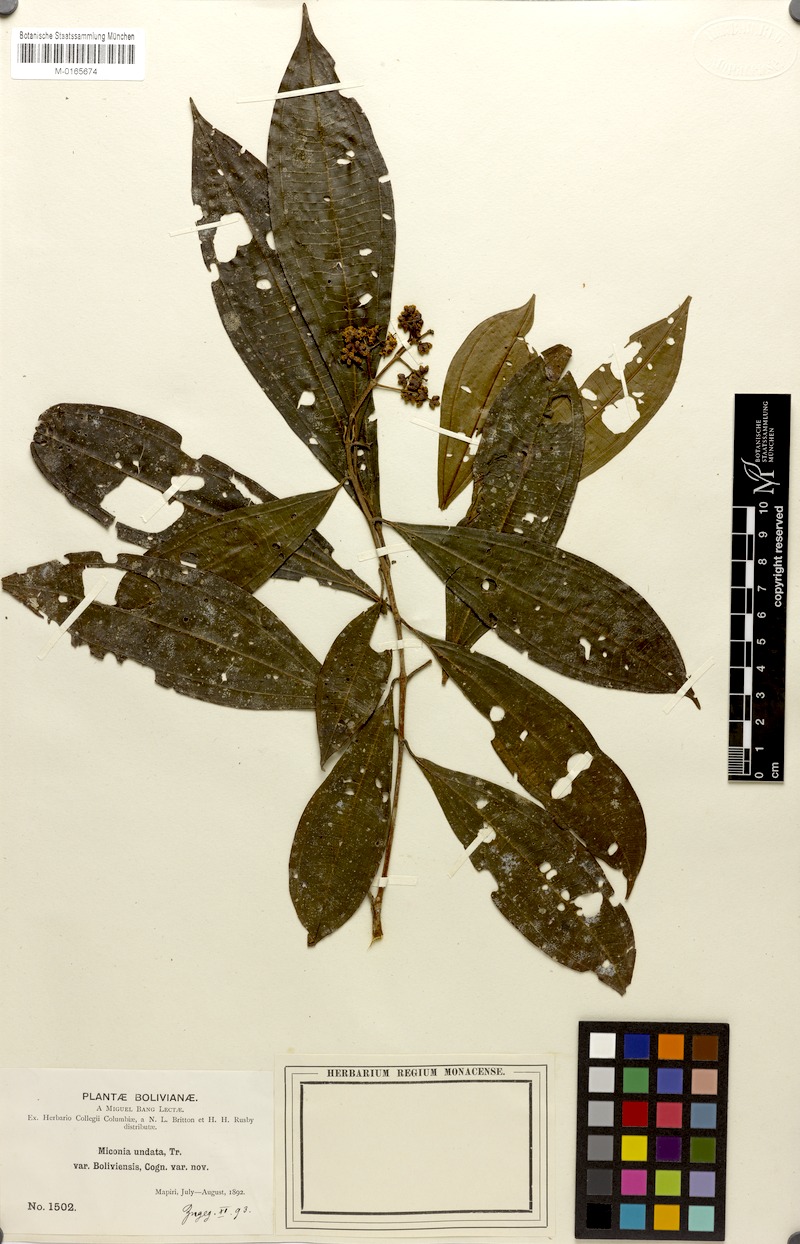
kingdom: Plantae
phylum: Tracheophyta
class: Magnoliopsida
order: Myrtales
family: Melastomataceae
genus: Miconia
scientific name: Miconia undata
